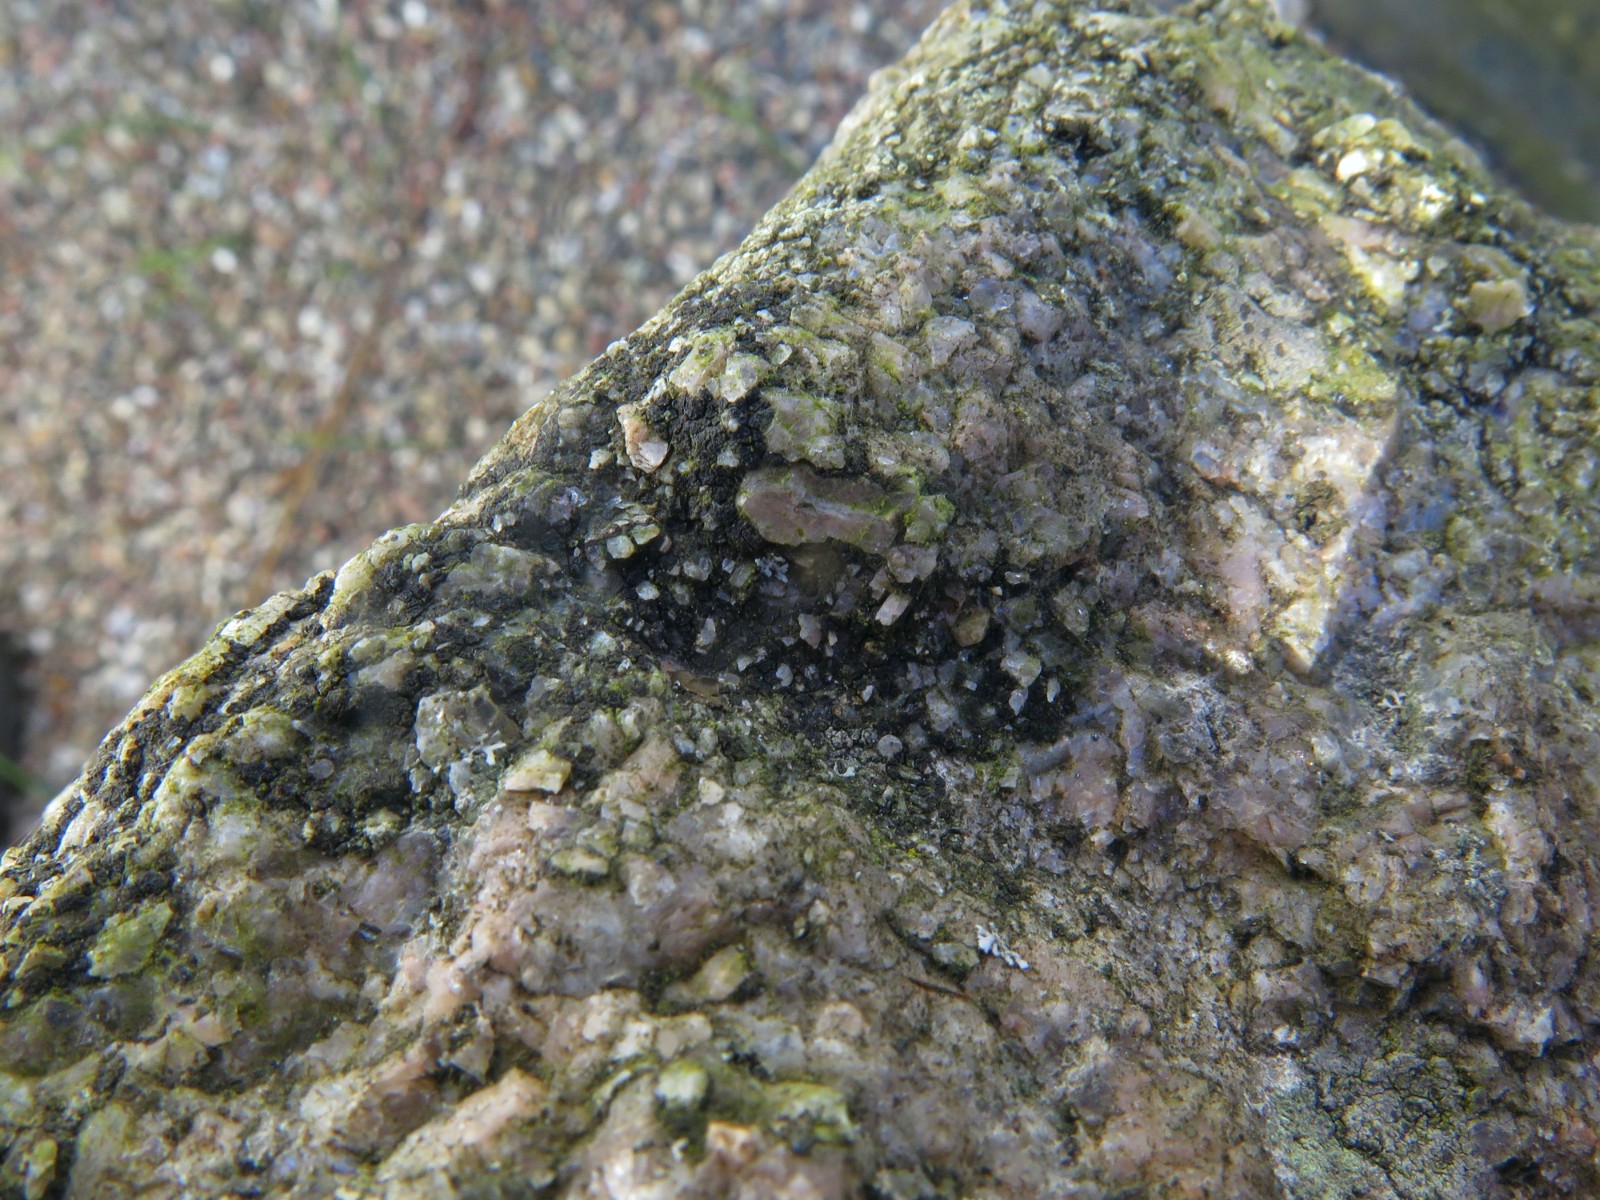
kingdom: Fungi
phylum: Ascomycota
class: Lecanoromycetes
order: Acarosporales
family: Acarosporaceae
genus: Acarospora
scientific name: Acarospora privigna
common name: sort foldekantlav
